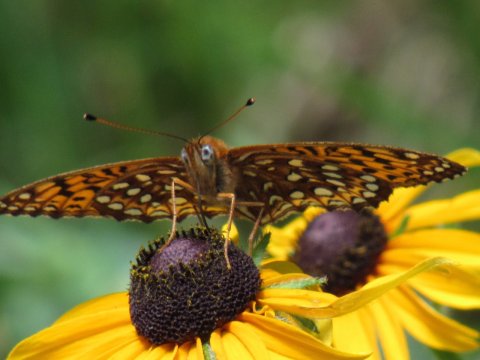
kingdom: Animalia
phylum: Arthropoda
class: Insecta
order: Lepidoptera
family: Nymphalidae
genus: Speyeria
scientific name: Speyeria atlantis
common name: Atlantis Fritillary
